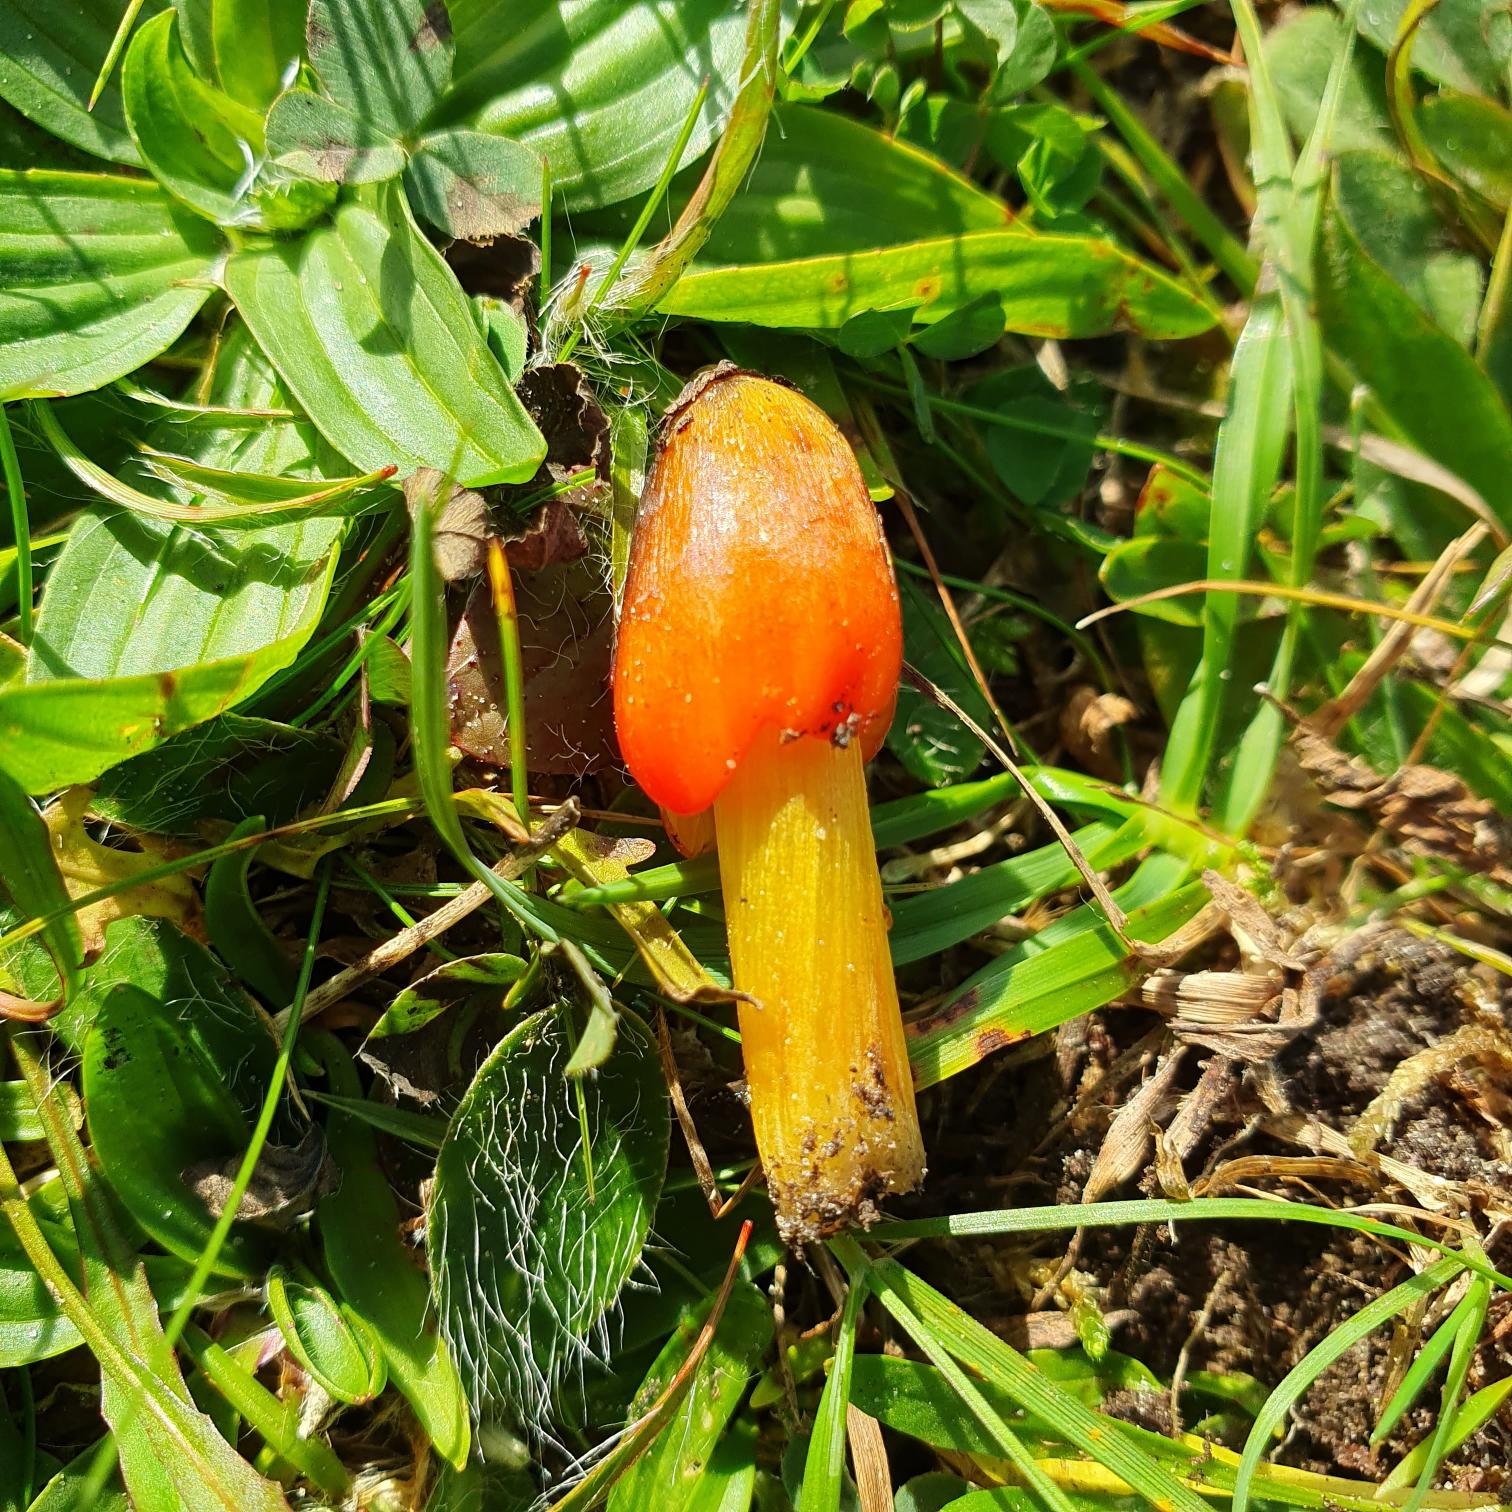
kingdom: Fungi
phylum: Basidiomycota
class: Agaricomycetes
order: Agaricales
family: Hygrophoraceae
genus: Hygrocybe
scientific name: Hygrocybe conica
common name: Kegle-vokshat
